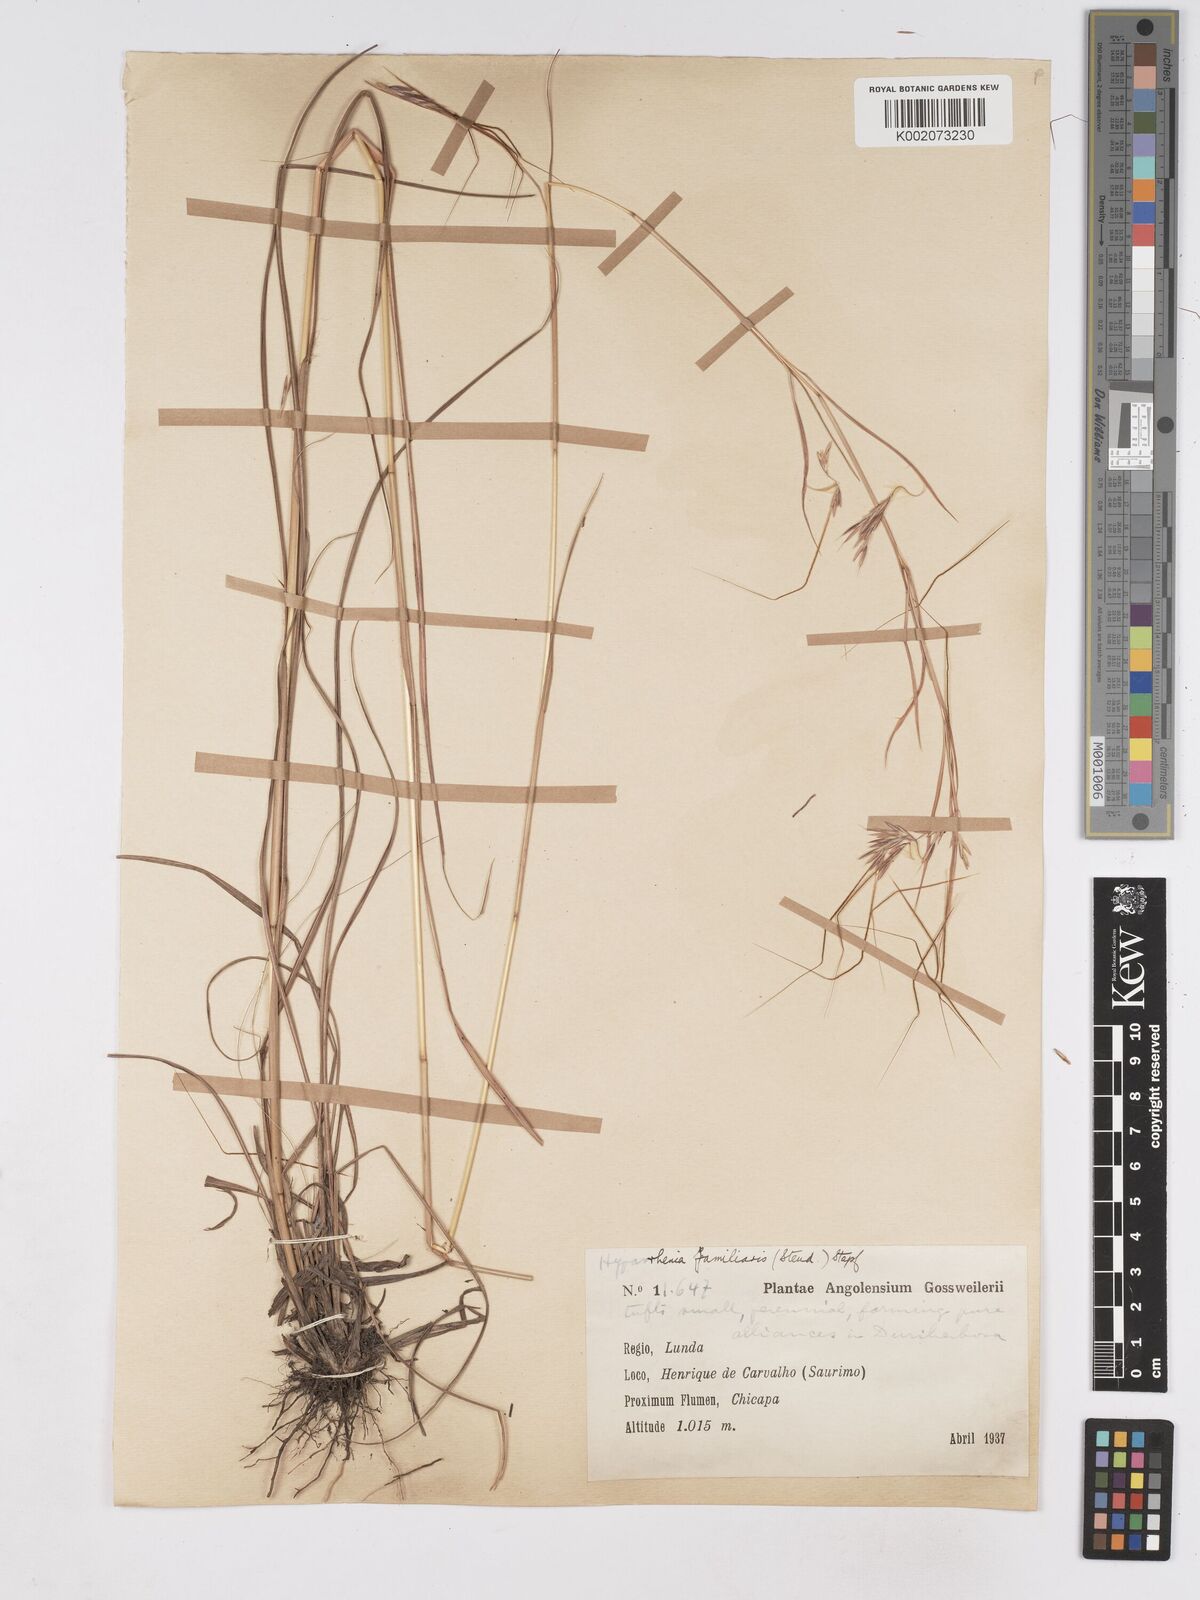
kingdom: Plantae
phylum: Tracheophyta
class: Liliopsida
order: Poales
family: Poaceae
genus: Hyparrhenia
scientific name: Hyparrhenia familiaris
